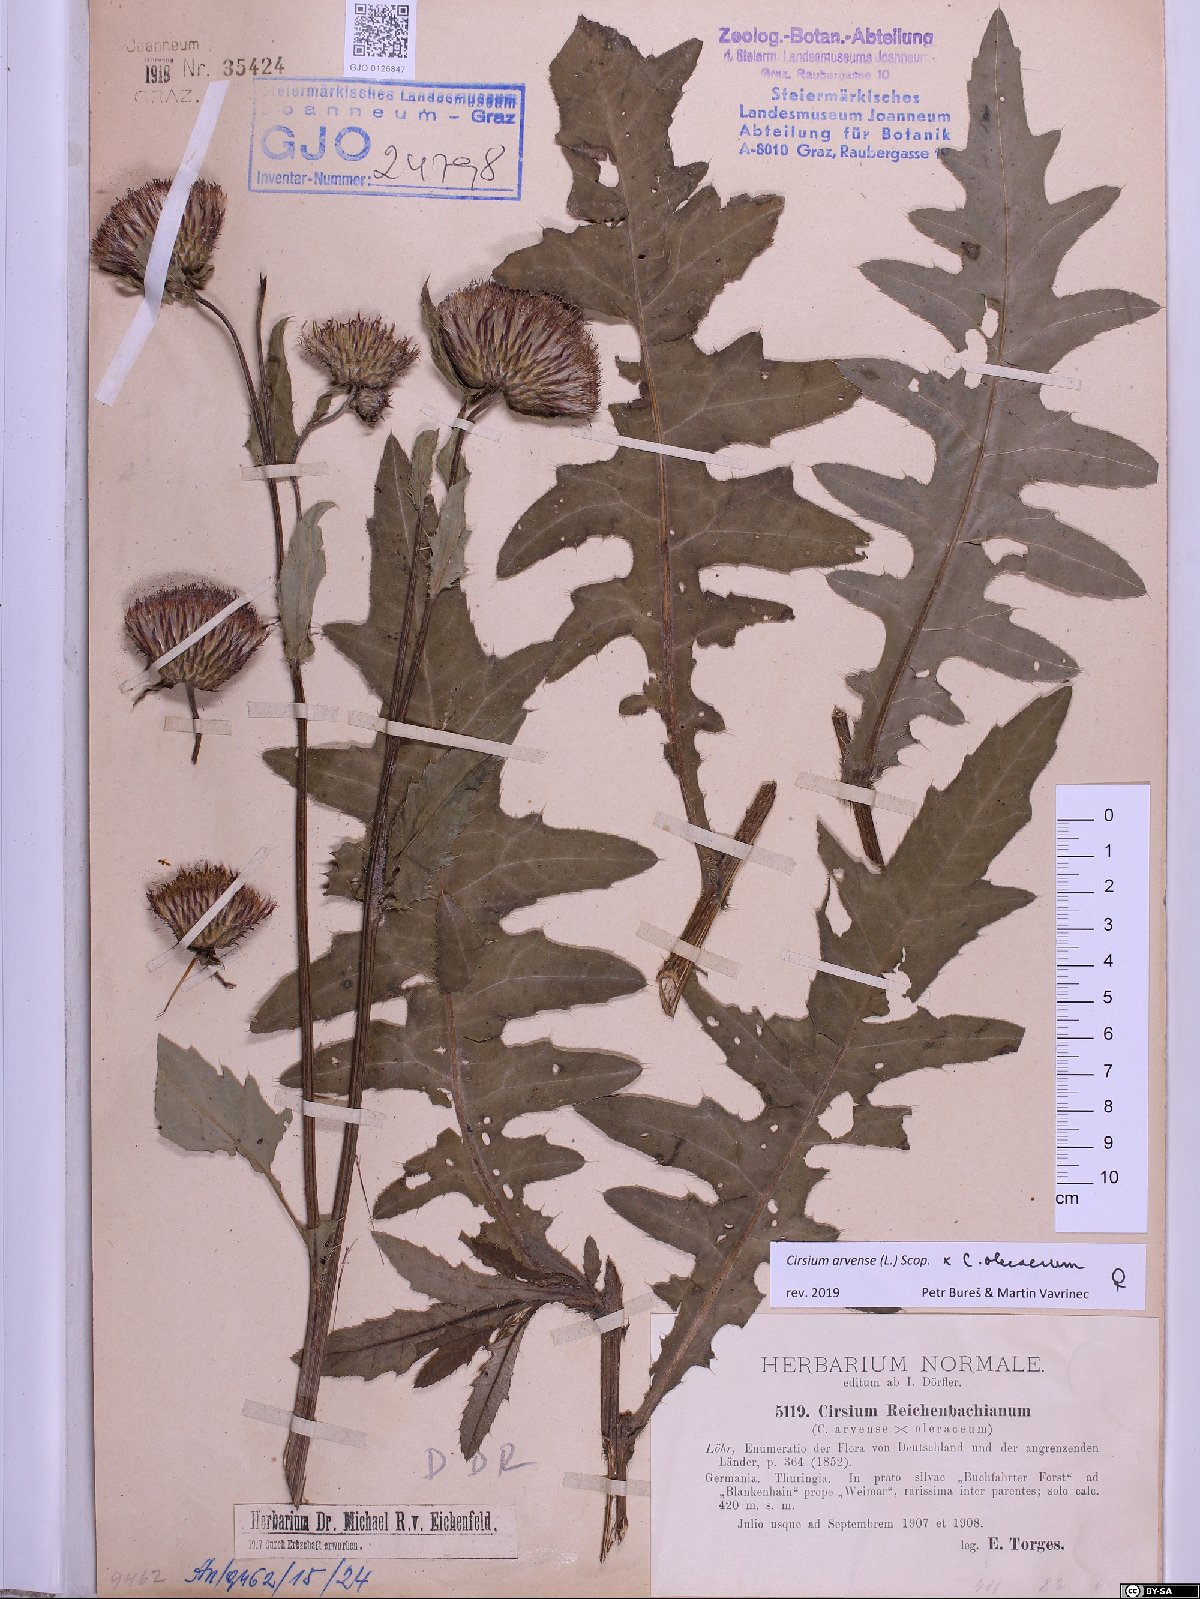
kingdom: Plantae
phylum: Tracheophyta
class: Magnoliopsida
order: Asterales
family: Asteraceae
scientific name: Asteraceae
